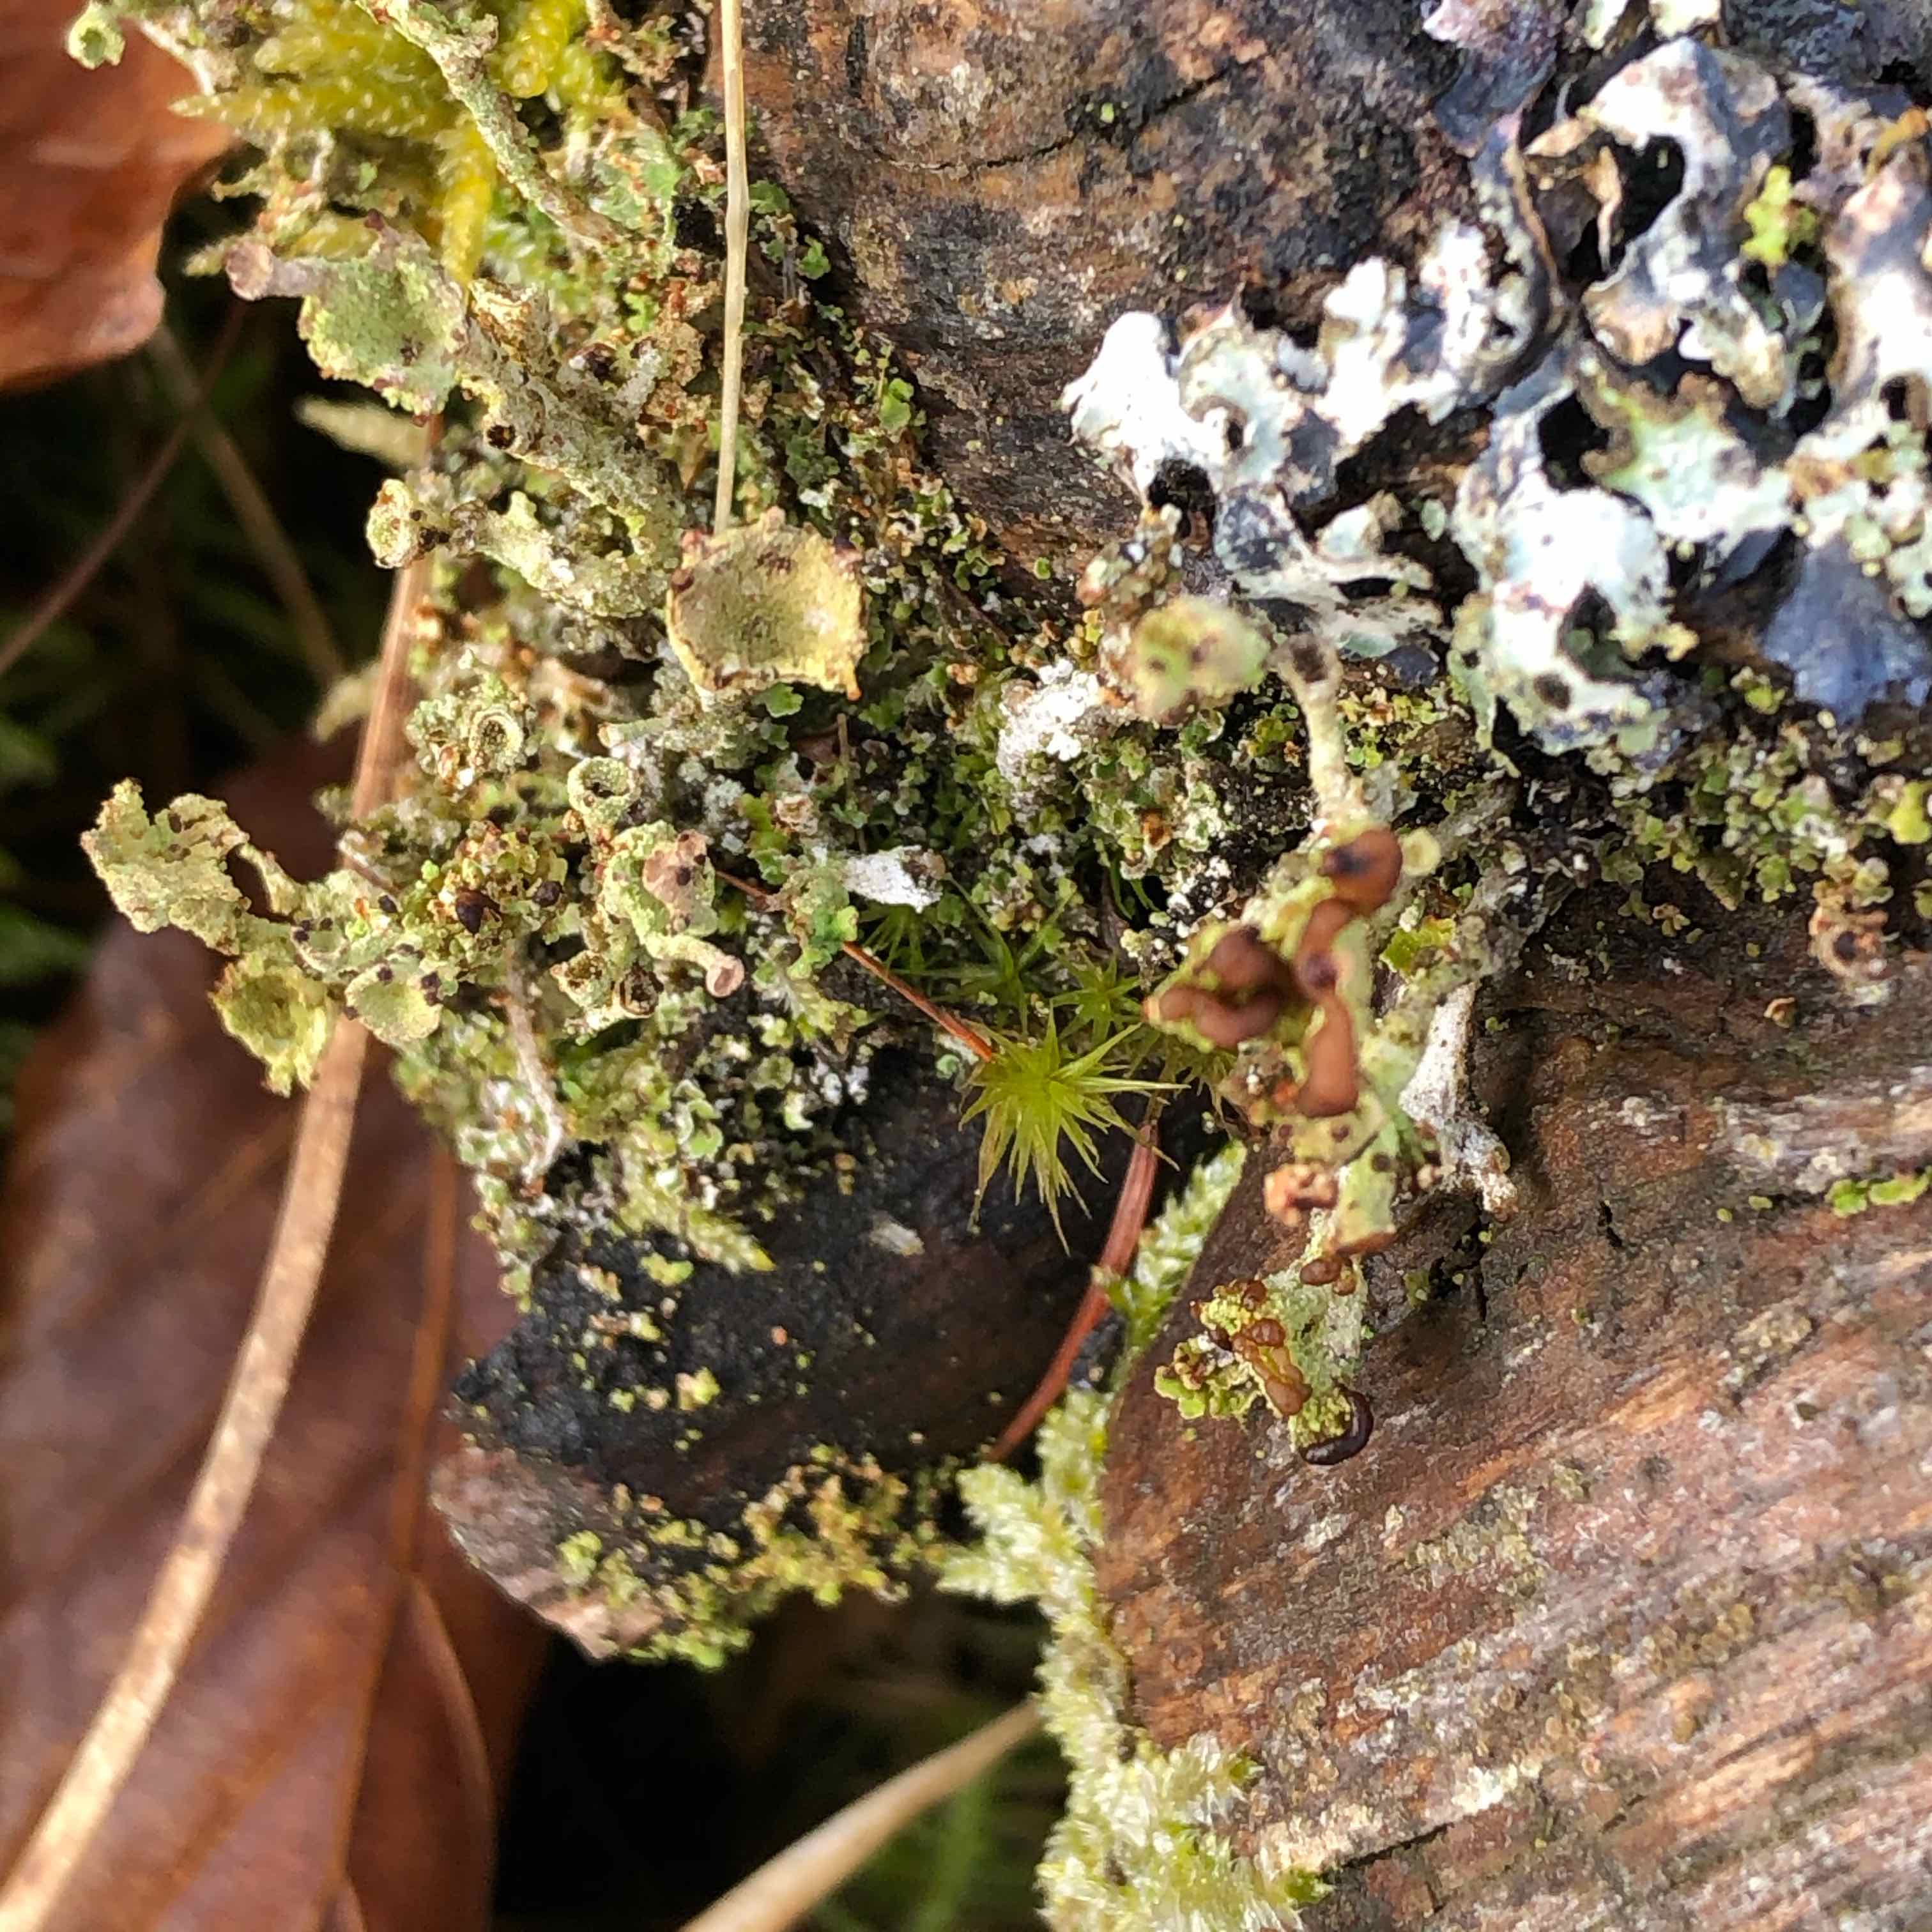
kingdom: Fungi
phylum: Ascomycota
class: Lecanoromycetes
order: Lecanorales
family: Cladoniaceae
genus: Cladonia
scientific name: Cladonia
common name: brungrøn bægerlav
